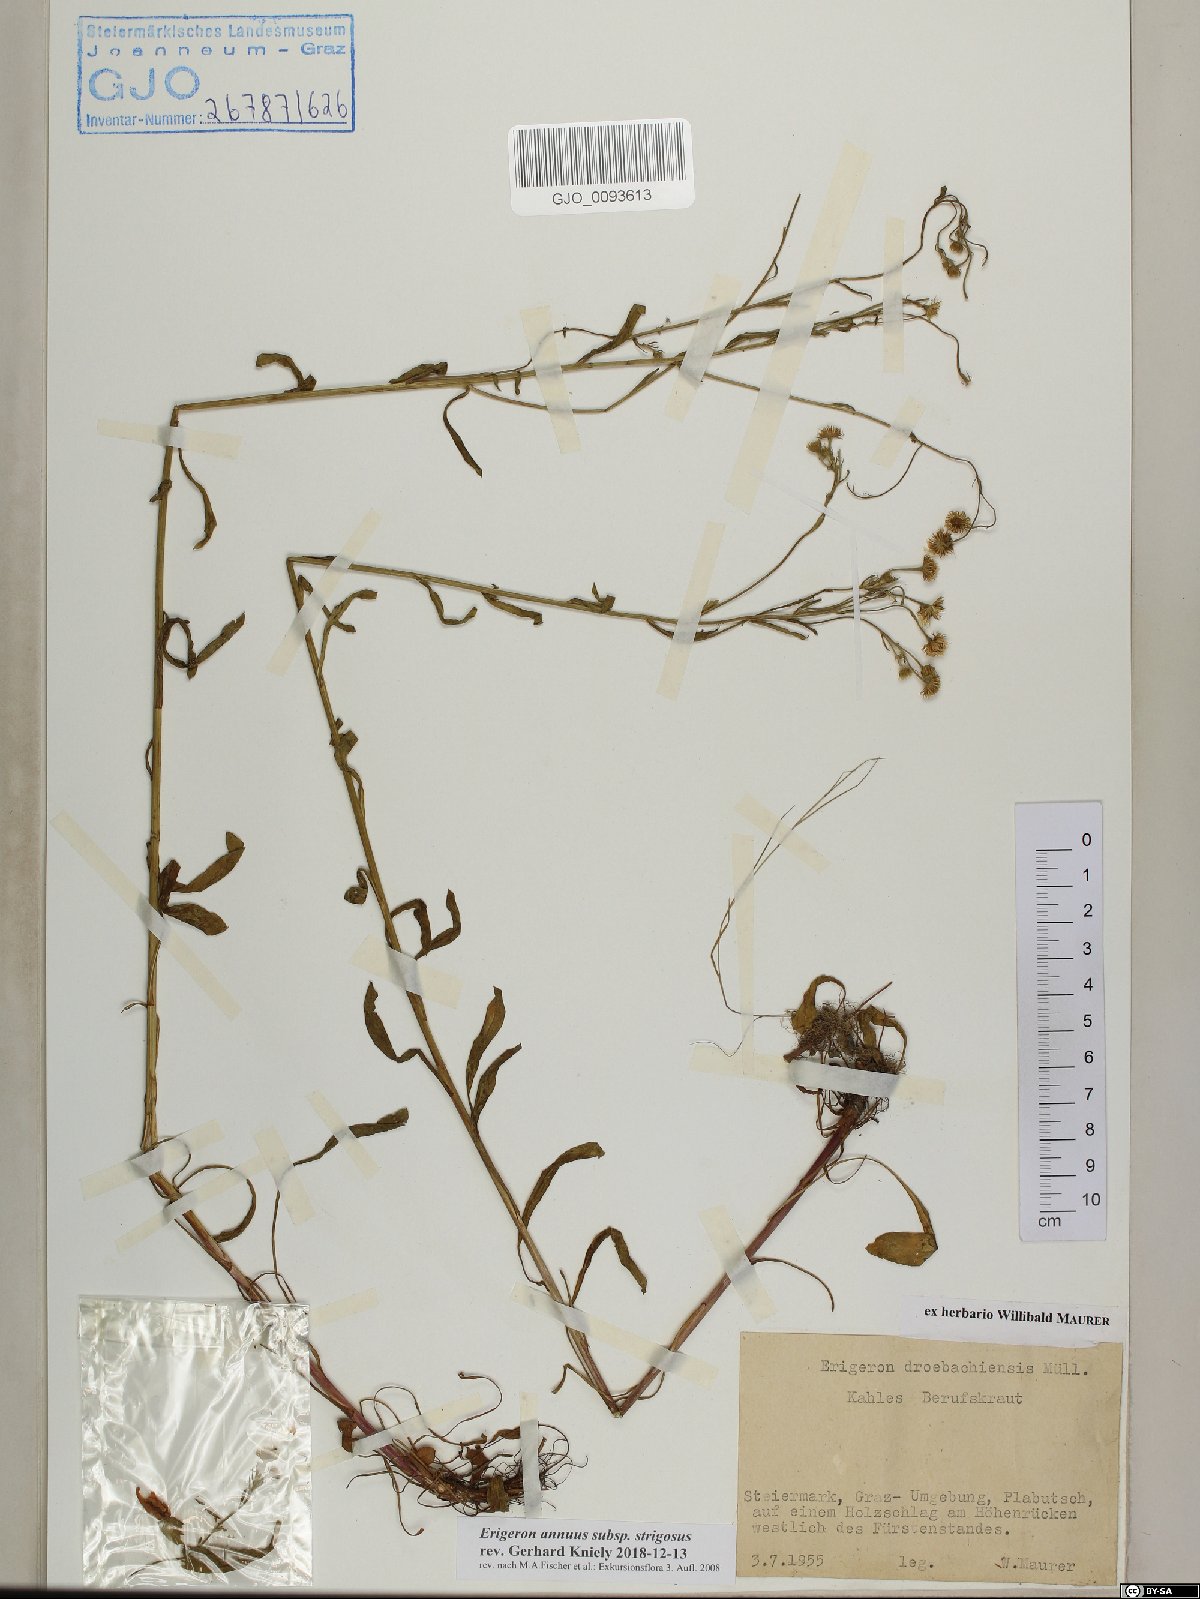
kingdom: Plantae
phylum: Tracheophyta
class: Magnoliopsida
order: Asterales
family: Asteraceae
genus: Erigeron
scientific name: Erigeron strigosus
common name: Common eastern fleabane
